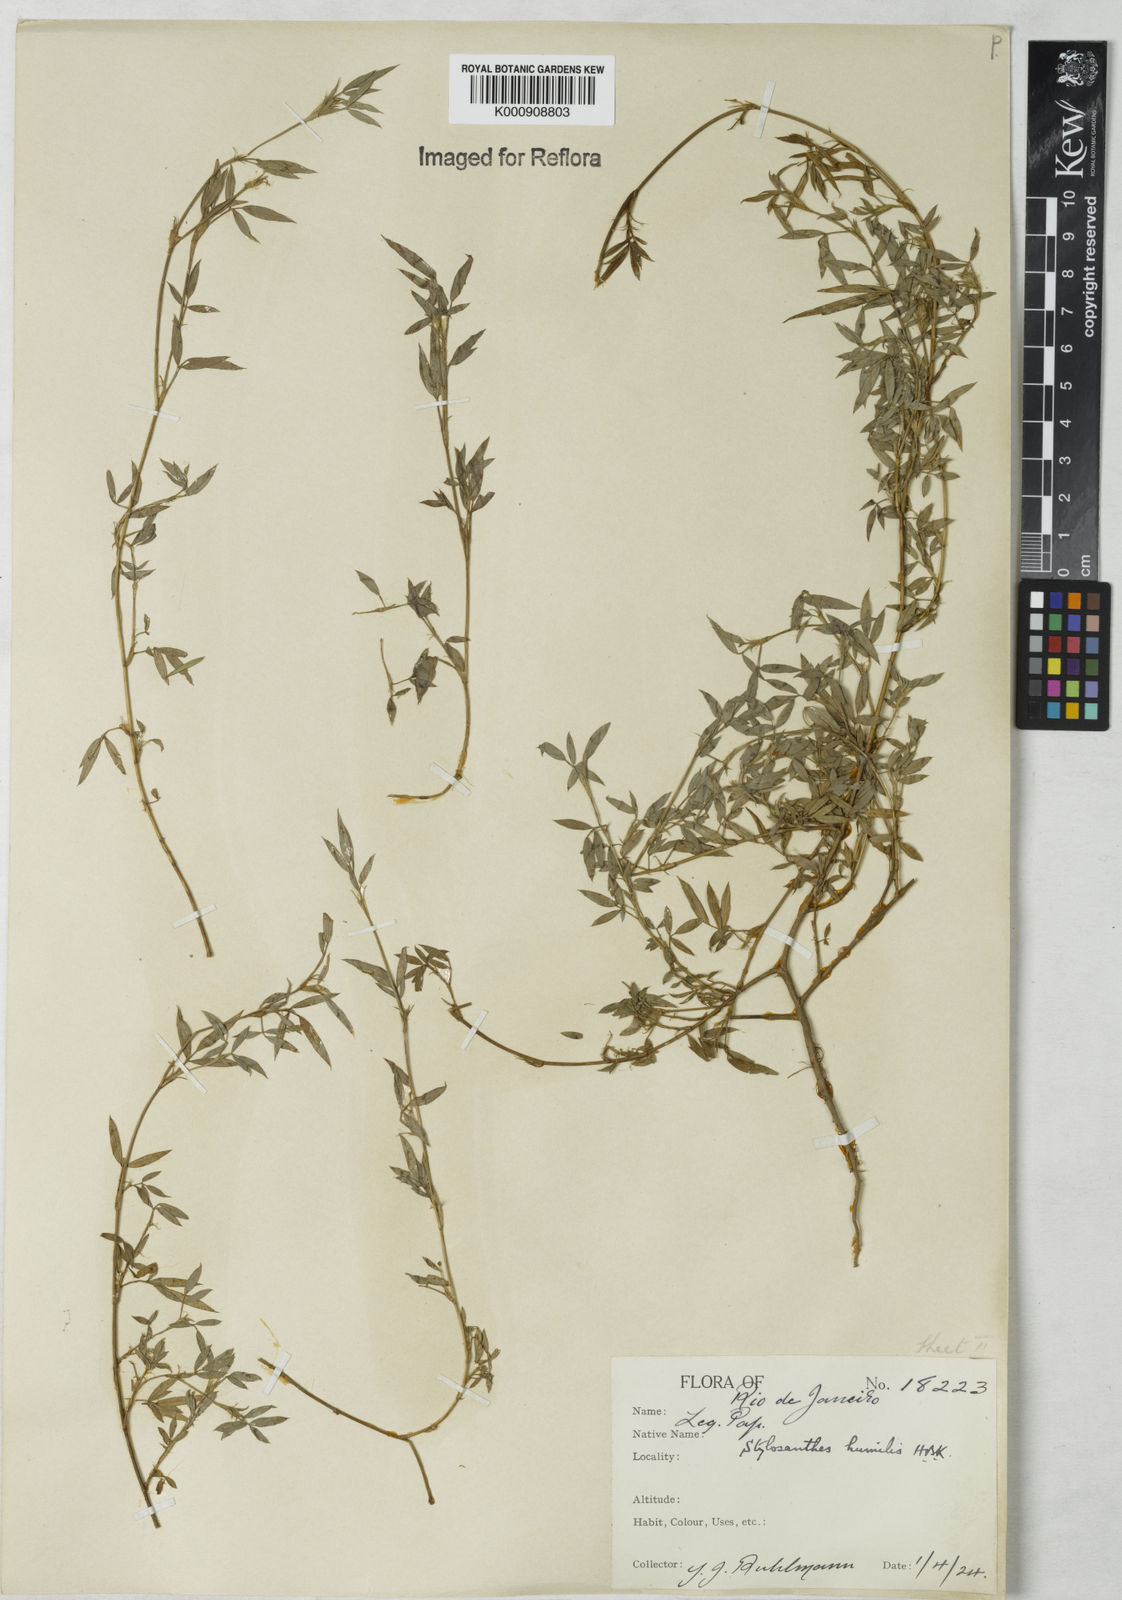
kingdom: Plantae
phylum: Tracheophyta
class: Magnoliopsida
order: Fabales
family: Fabaceae
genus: Stylosanthes
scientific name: Stylosanthes humilis
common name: Townsville stylo
